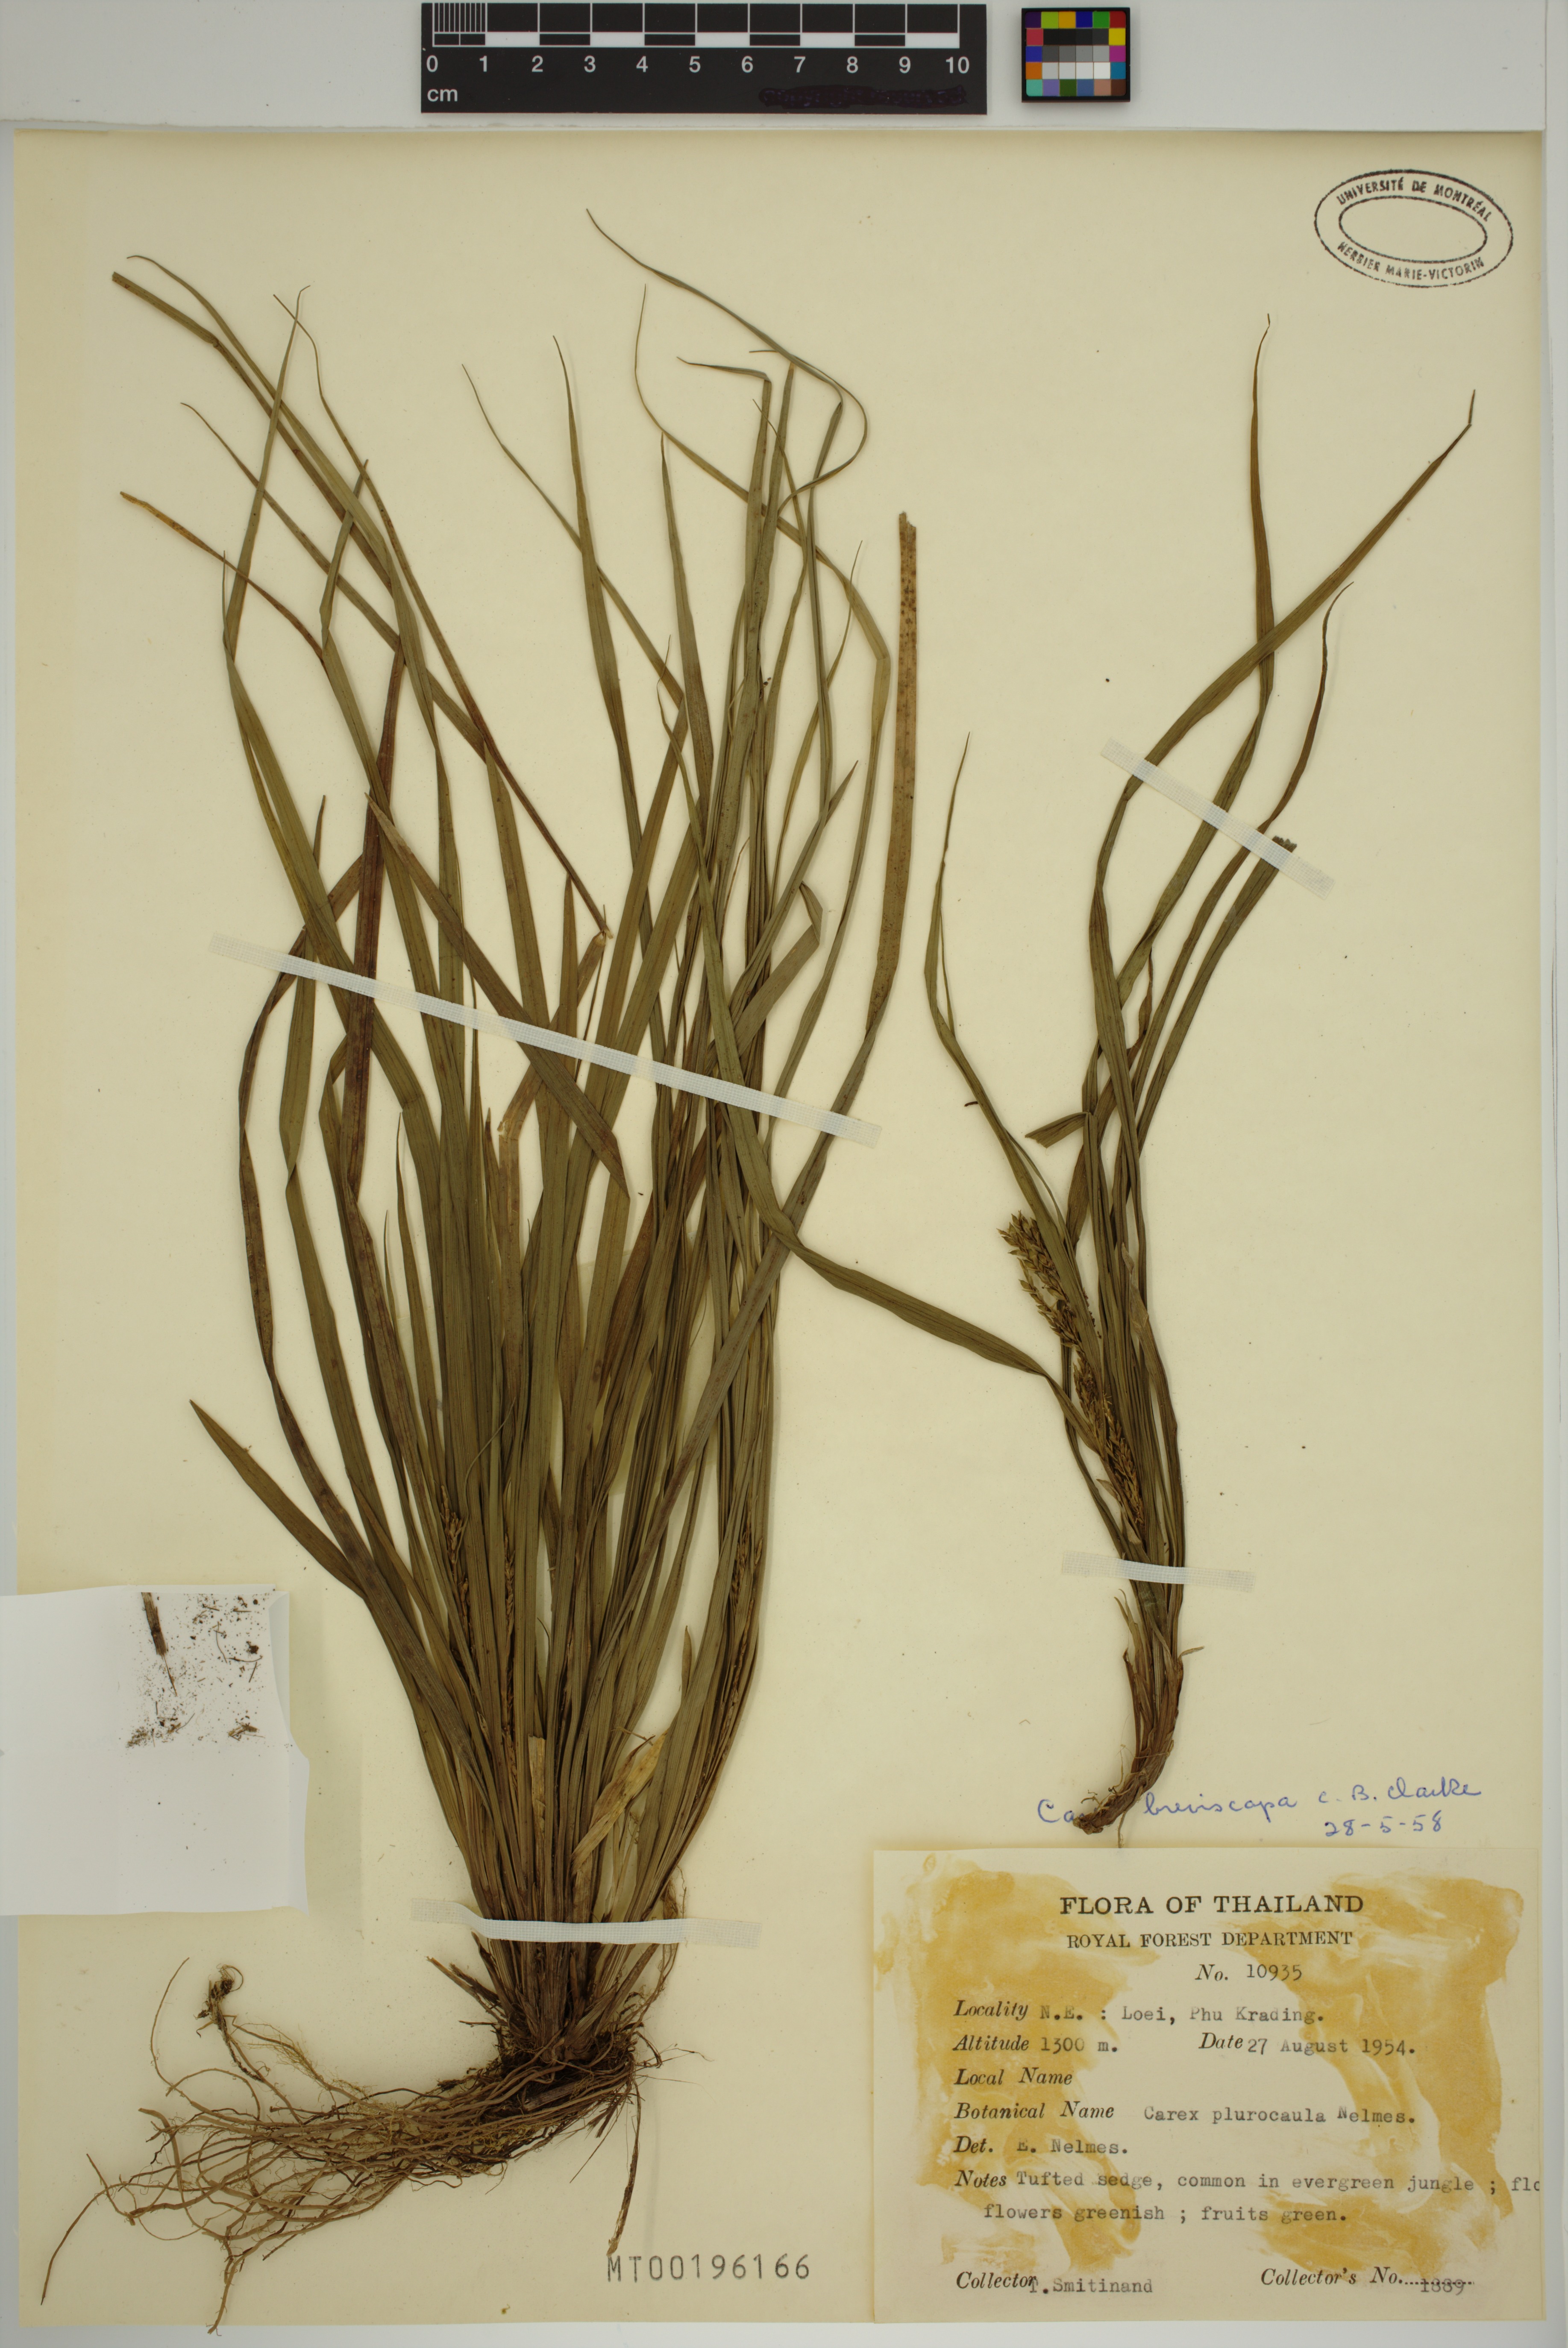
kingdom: Plantae
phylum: Tracheophyta
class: Liliopsida
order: Poales
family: Cyperaceae
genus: Carex
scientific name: Carex breviscapa
